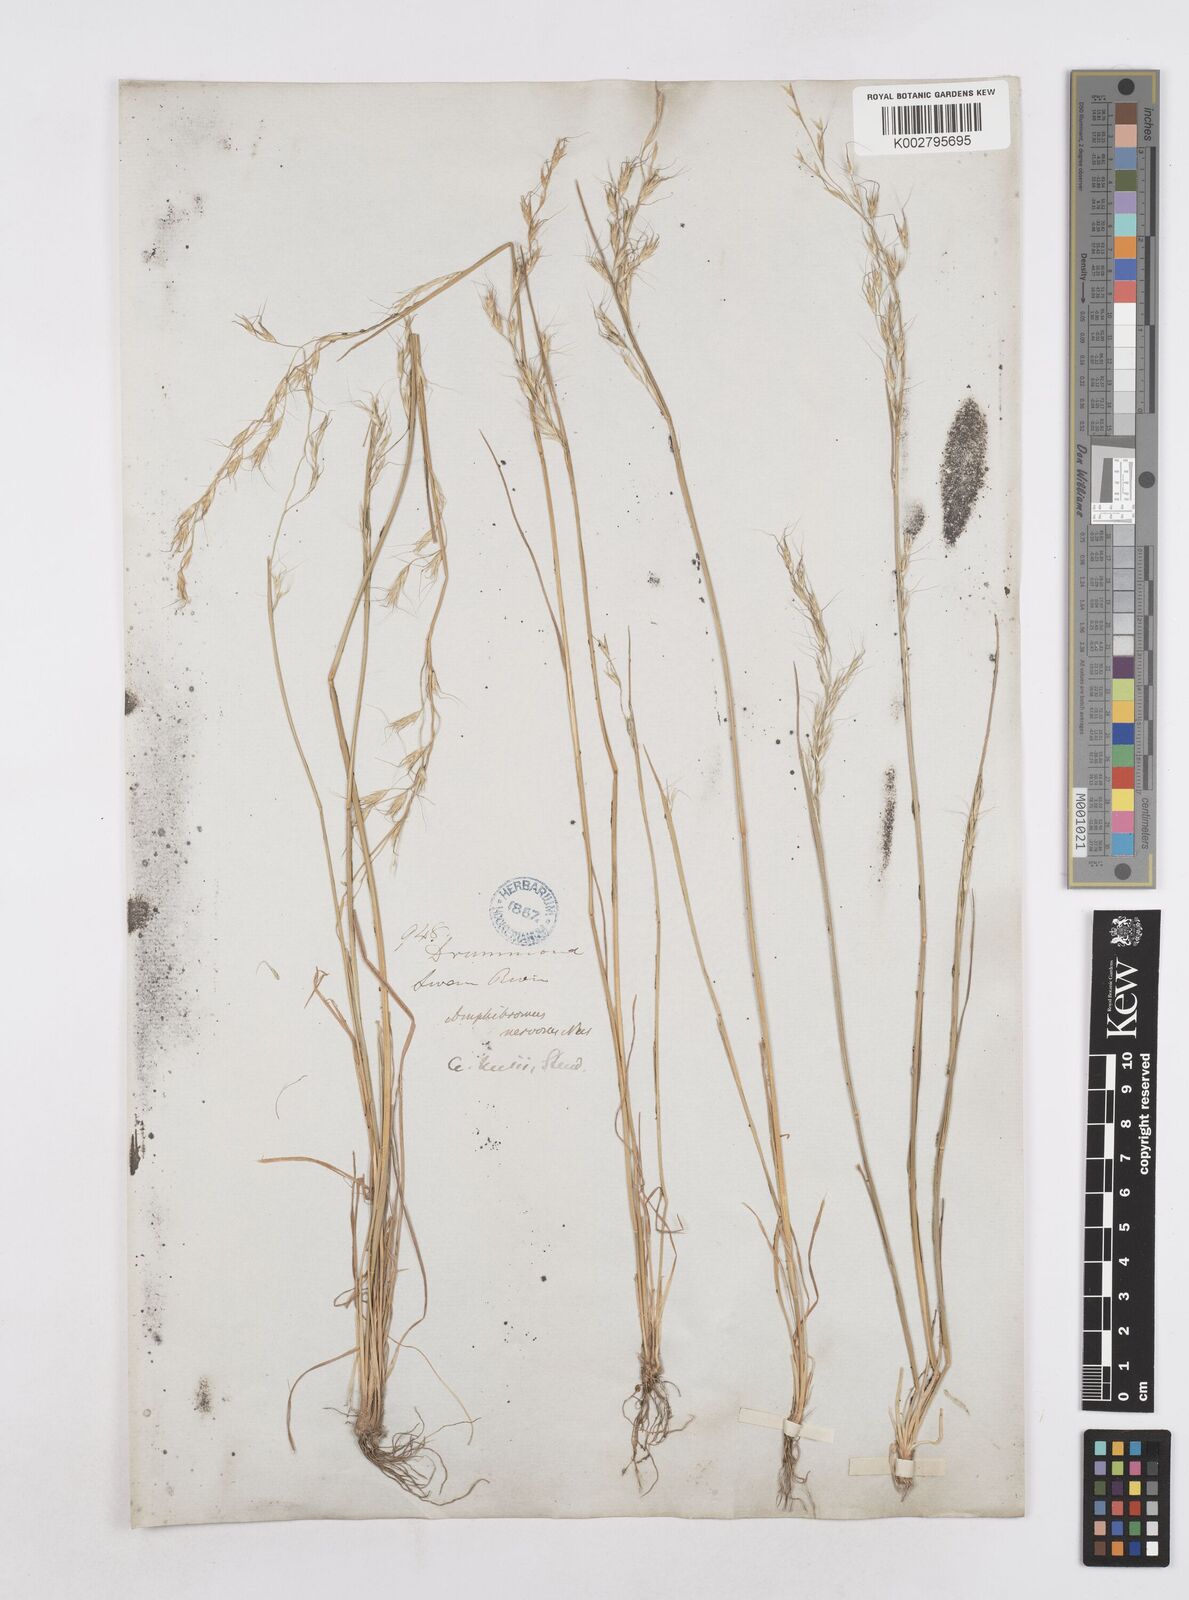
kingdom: Plantae
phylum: Tracheophyta
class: Liliopsida
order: Poales
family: Poaceae
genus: Amphibromus
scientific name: Amphibromus neesii
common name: Australian wallaby grass
